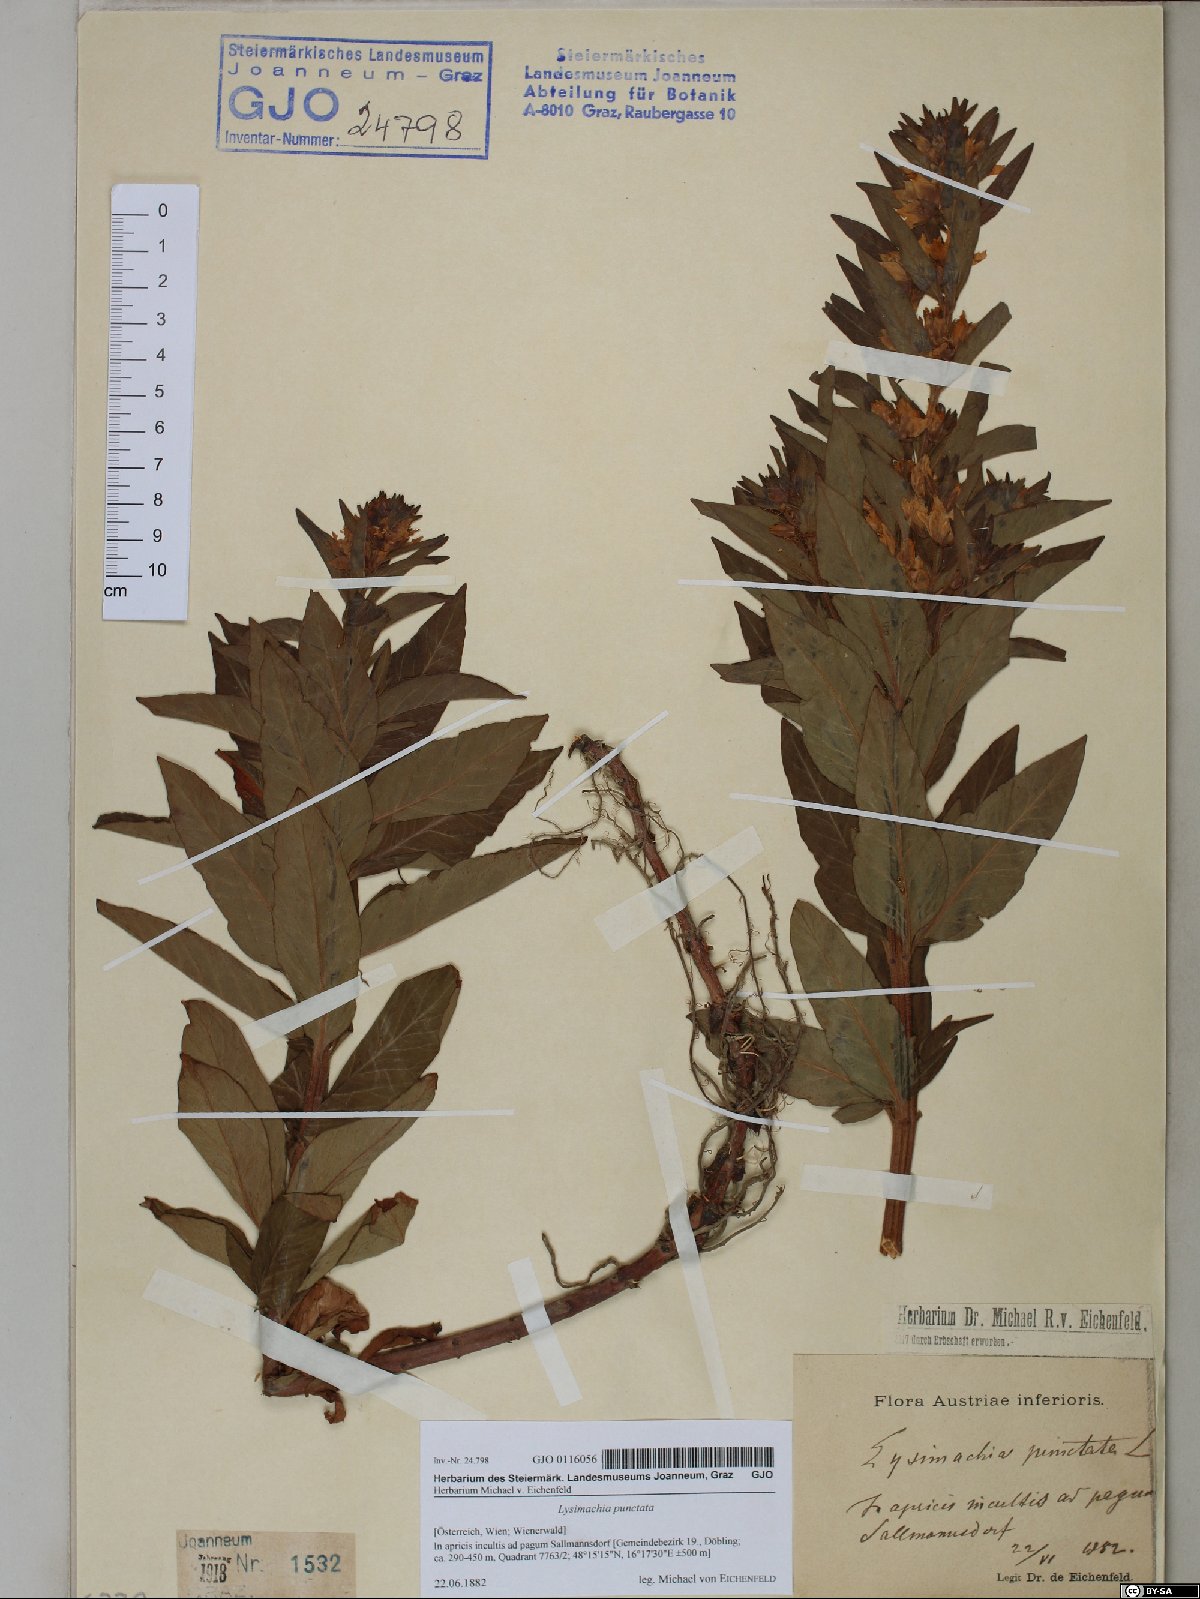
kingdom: Plantae
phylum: Tracheophyta
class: Magnoliopsida
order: Ericales
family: Primulaceae
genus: Lysimachia
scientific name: Lysimachia punctata
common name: Dotted loosestrife
